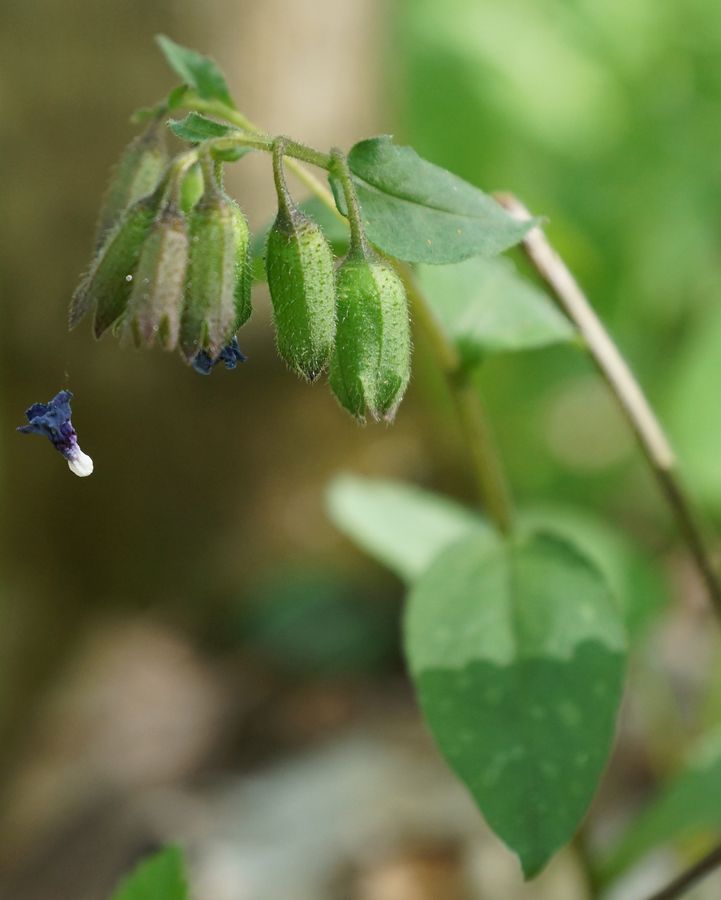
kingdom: Plantae
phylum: Tracheophyta
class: Magnoliopsida
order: Boraginales
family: Boraginaceae
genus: Pulmonaria
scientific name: Pulmonaria obscura
